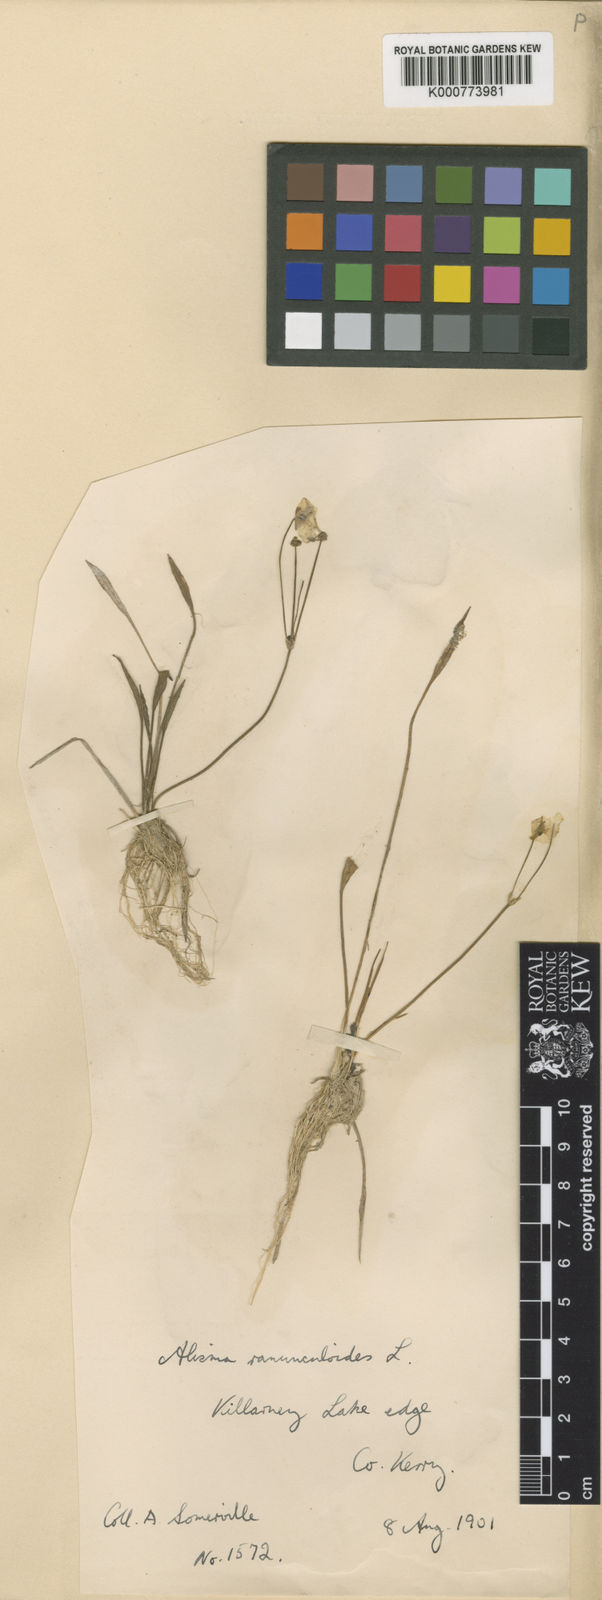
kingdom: Plantae
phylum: Tracheophyta
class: Liliopsida
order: Alismatales
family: Alismataceae
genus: Baldellia
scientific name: Baldellia ranunculoides
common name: Lesser water-plantain
